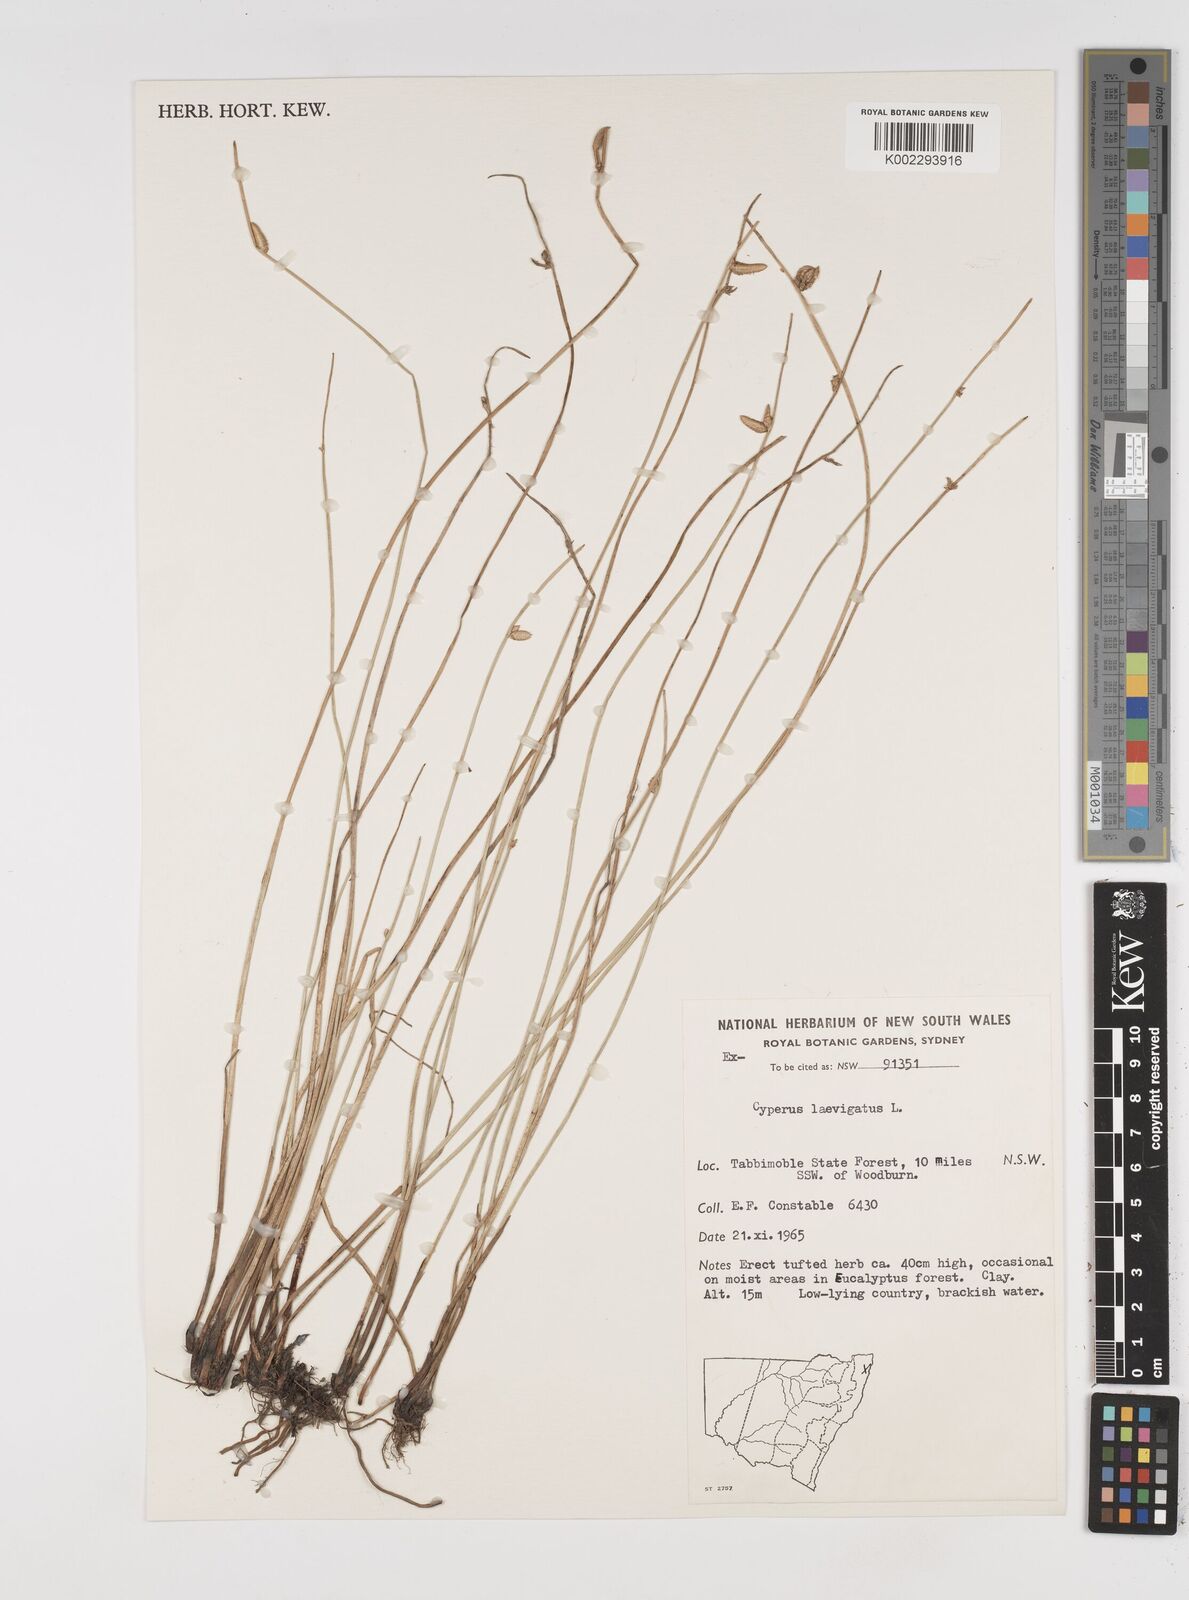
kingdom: Plantae
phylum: Tracheophyta
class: Liliopsida
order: Poales
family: Cyperaceae
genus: Cyperus
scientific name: Cyperus laevigatus
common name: Smooth flat sedge
